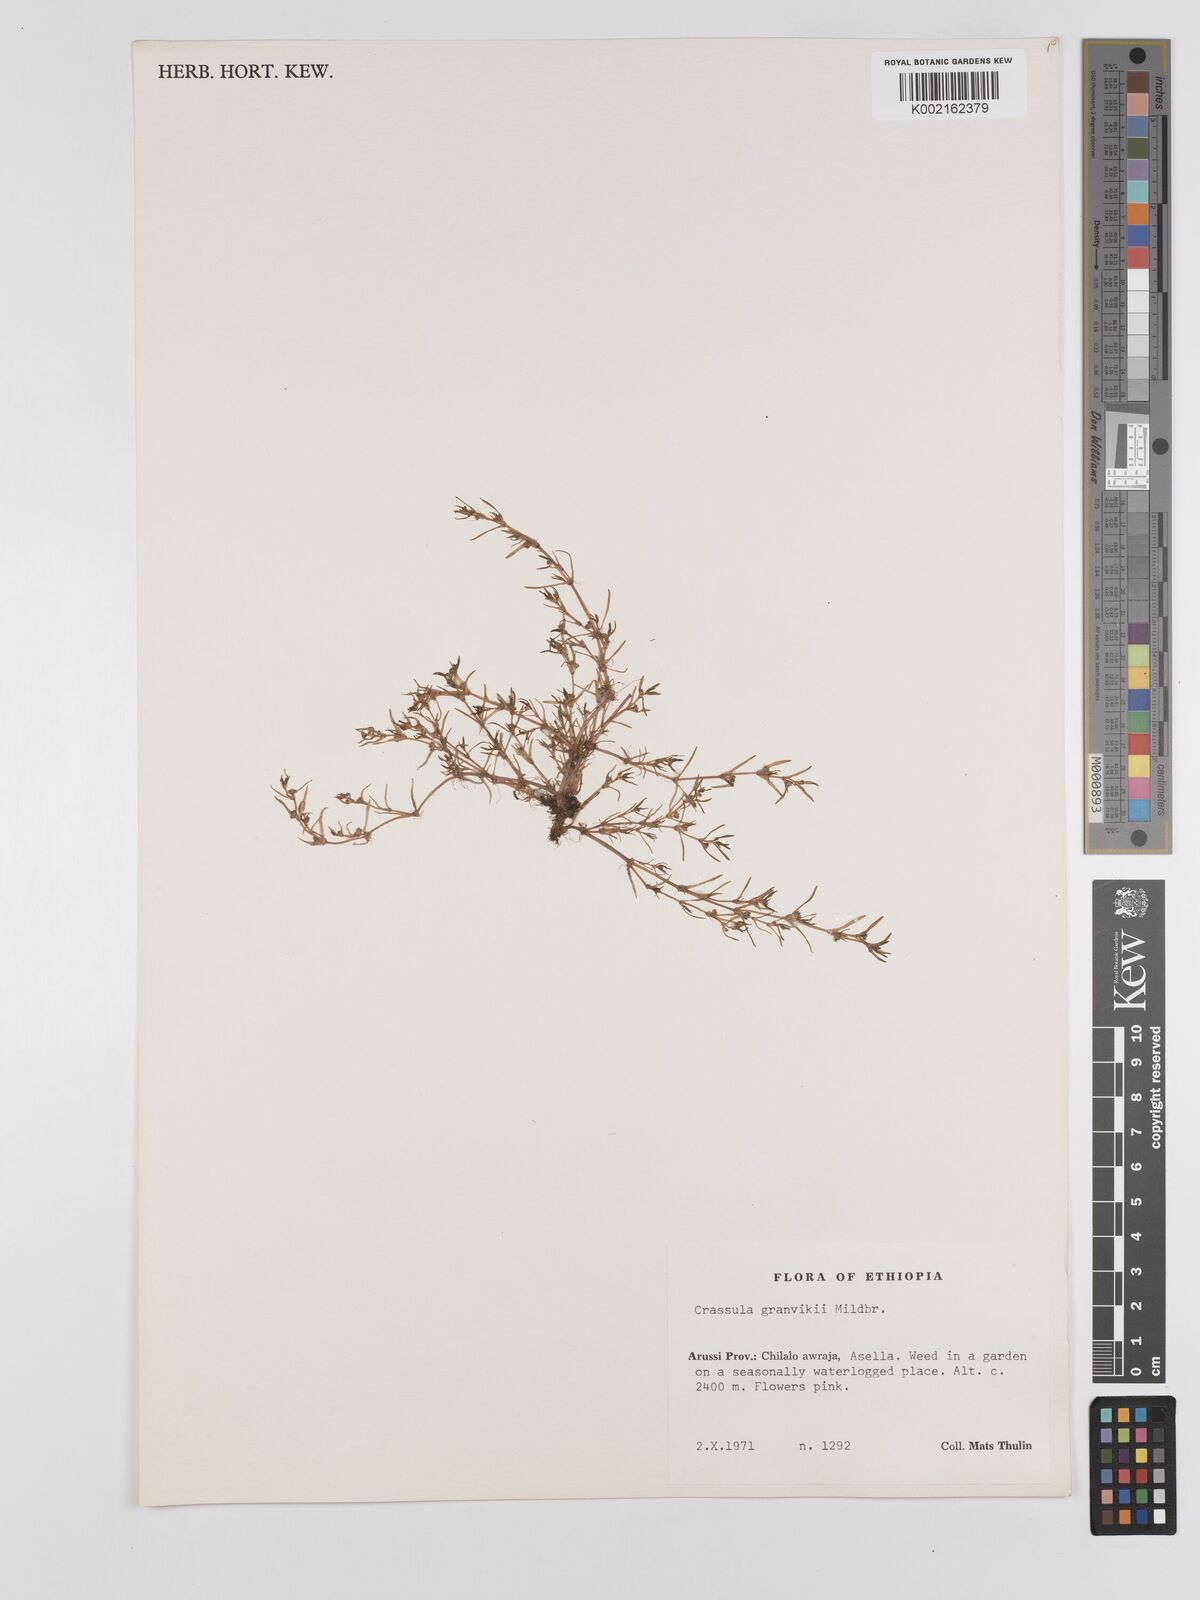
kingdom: Plantae
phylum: Tracheophyta
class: Magnoliopsida
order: Saxifragales
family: Crassulaceae
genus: Crassula
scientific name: Crassula granvikii
